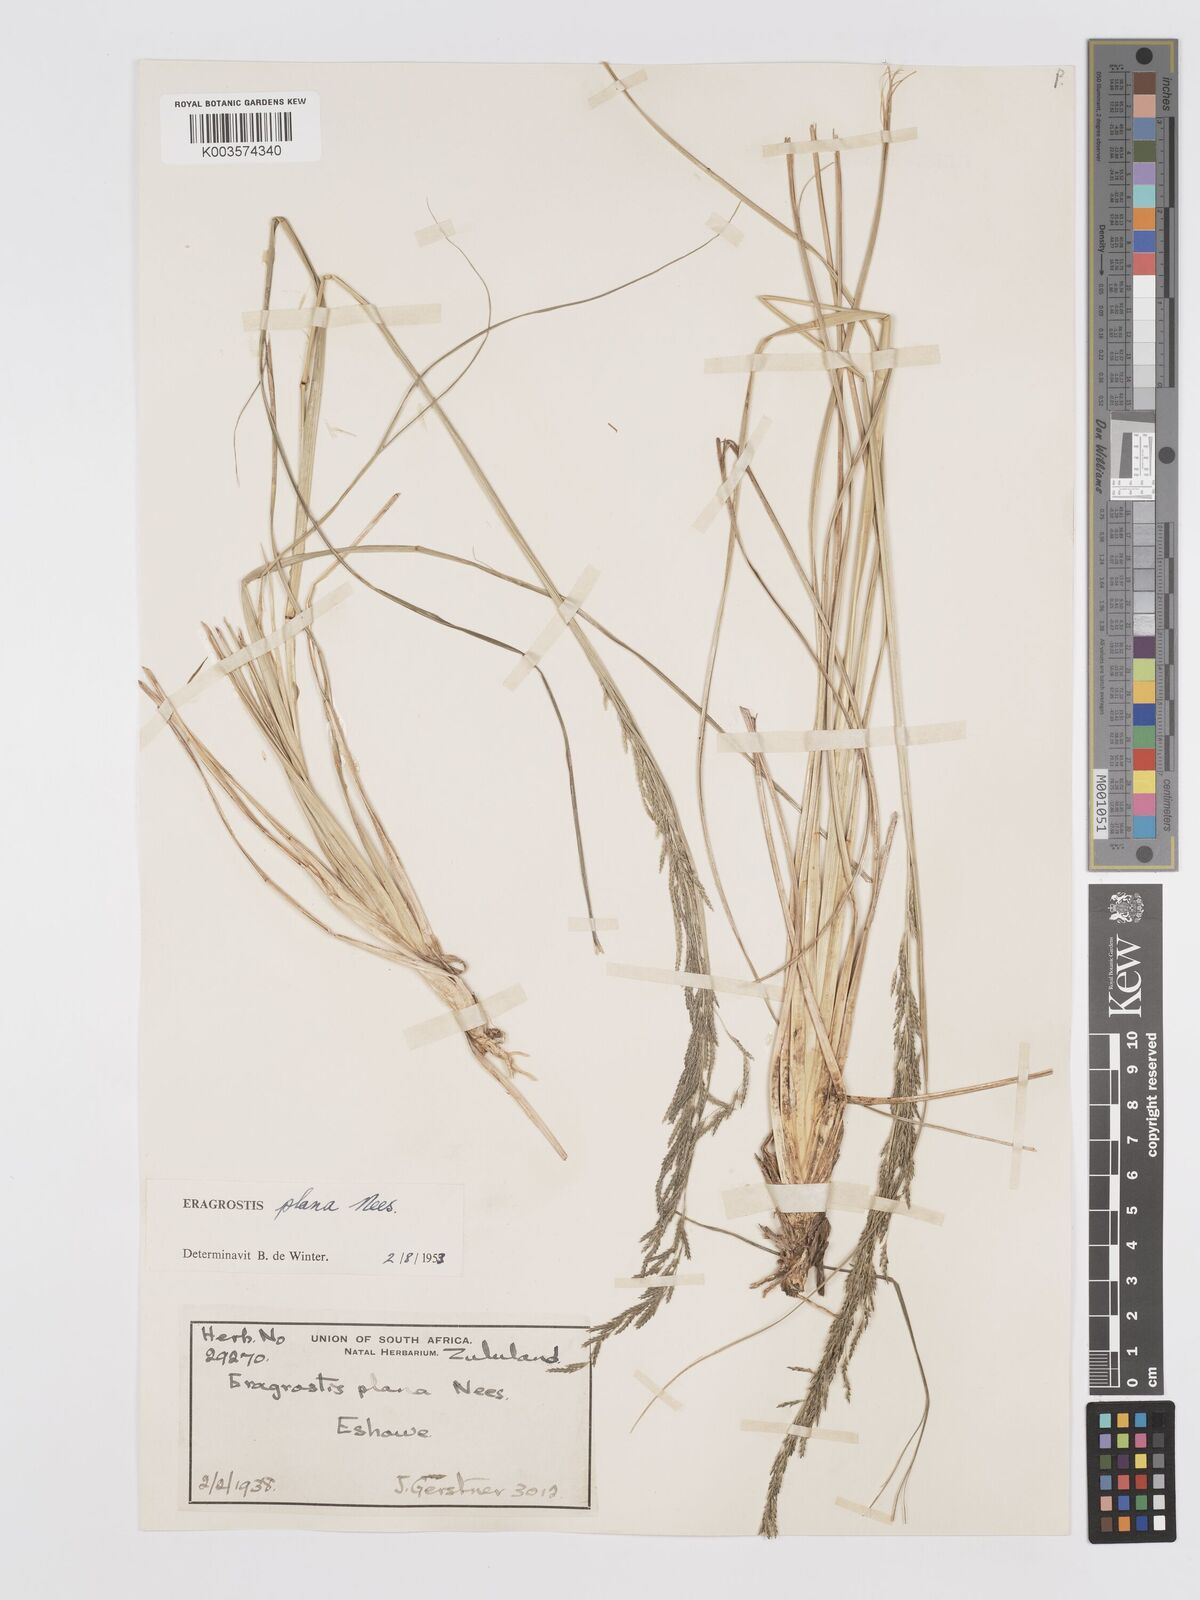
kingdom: Plantae
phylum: Tracheophyta
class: Liliopsida
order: Poales
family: Poaceae
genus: Eragrostis
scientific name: Eragrostis plana
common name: South african lovegrass
